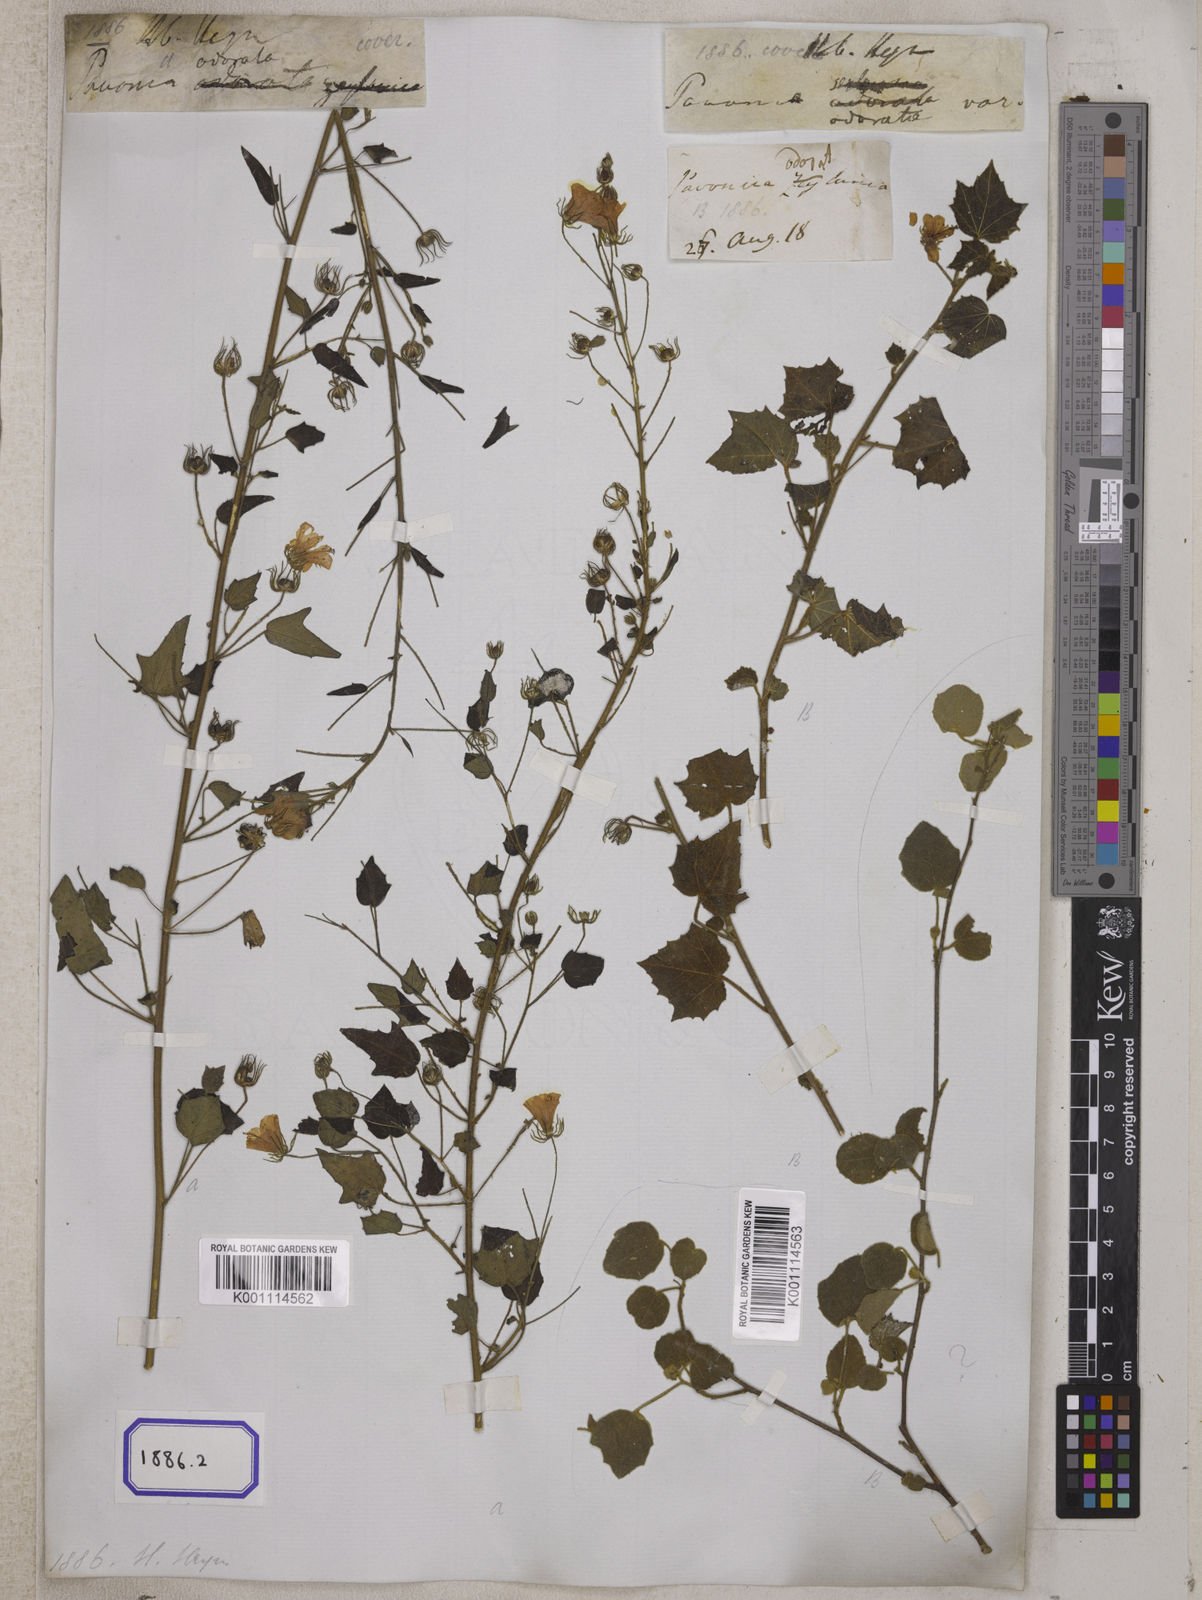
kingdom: Plantae
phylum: Tracheophyta
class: Magnoliopsida
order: Malvales
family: Malvaceae
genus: Pavonia
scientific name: Pavonia zeylonica
